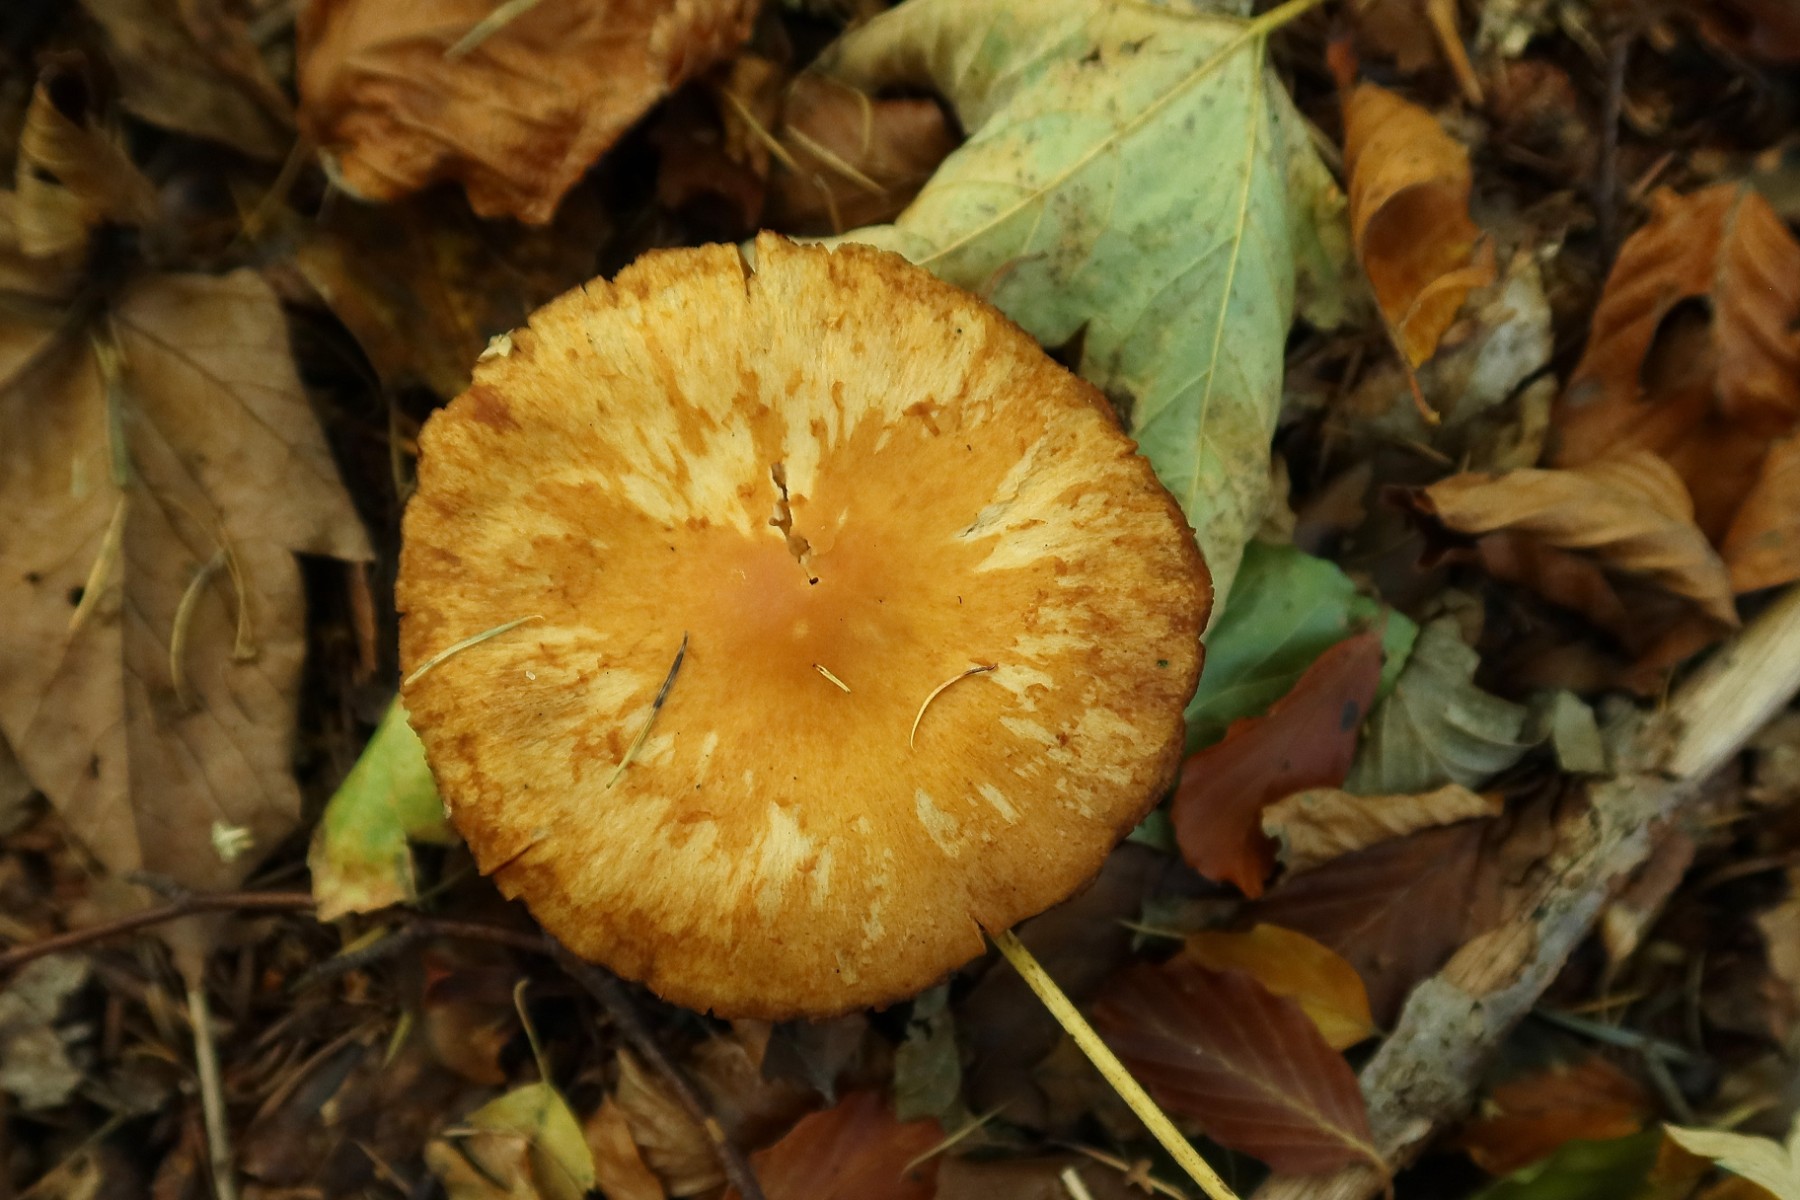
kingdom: Fungi
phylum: Basidiomycota
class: Agaricomycetes
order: Agaricales
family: Cortinariaceae
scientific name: Cortinariaceae
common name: slørhatfamilien
